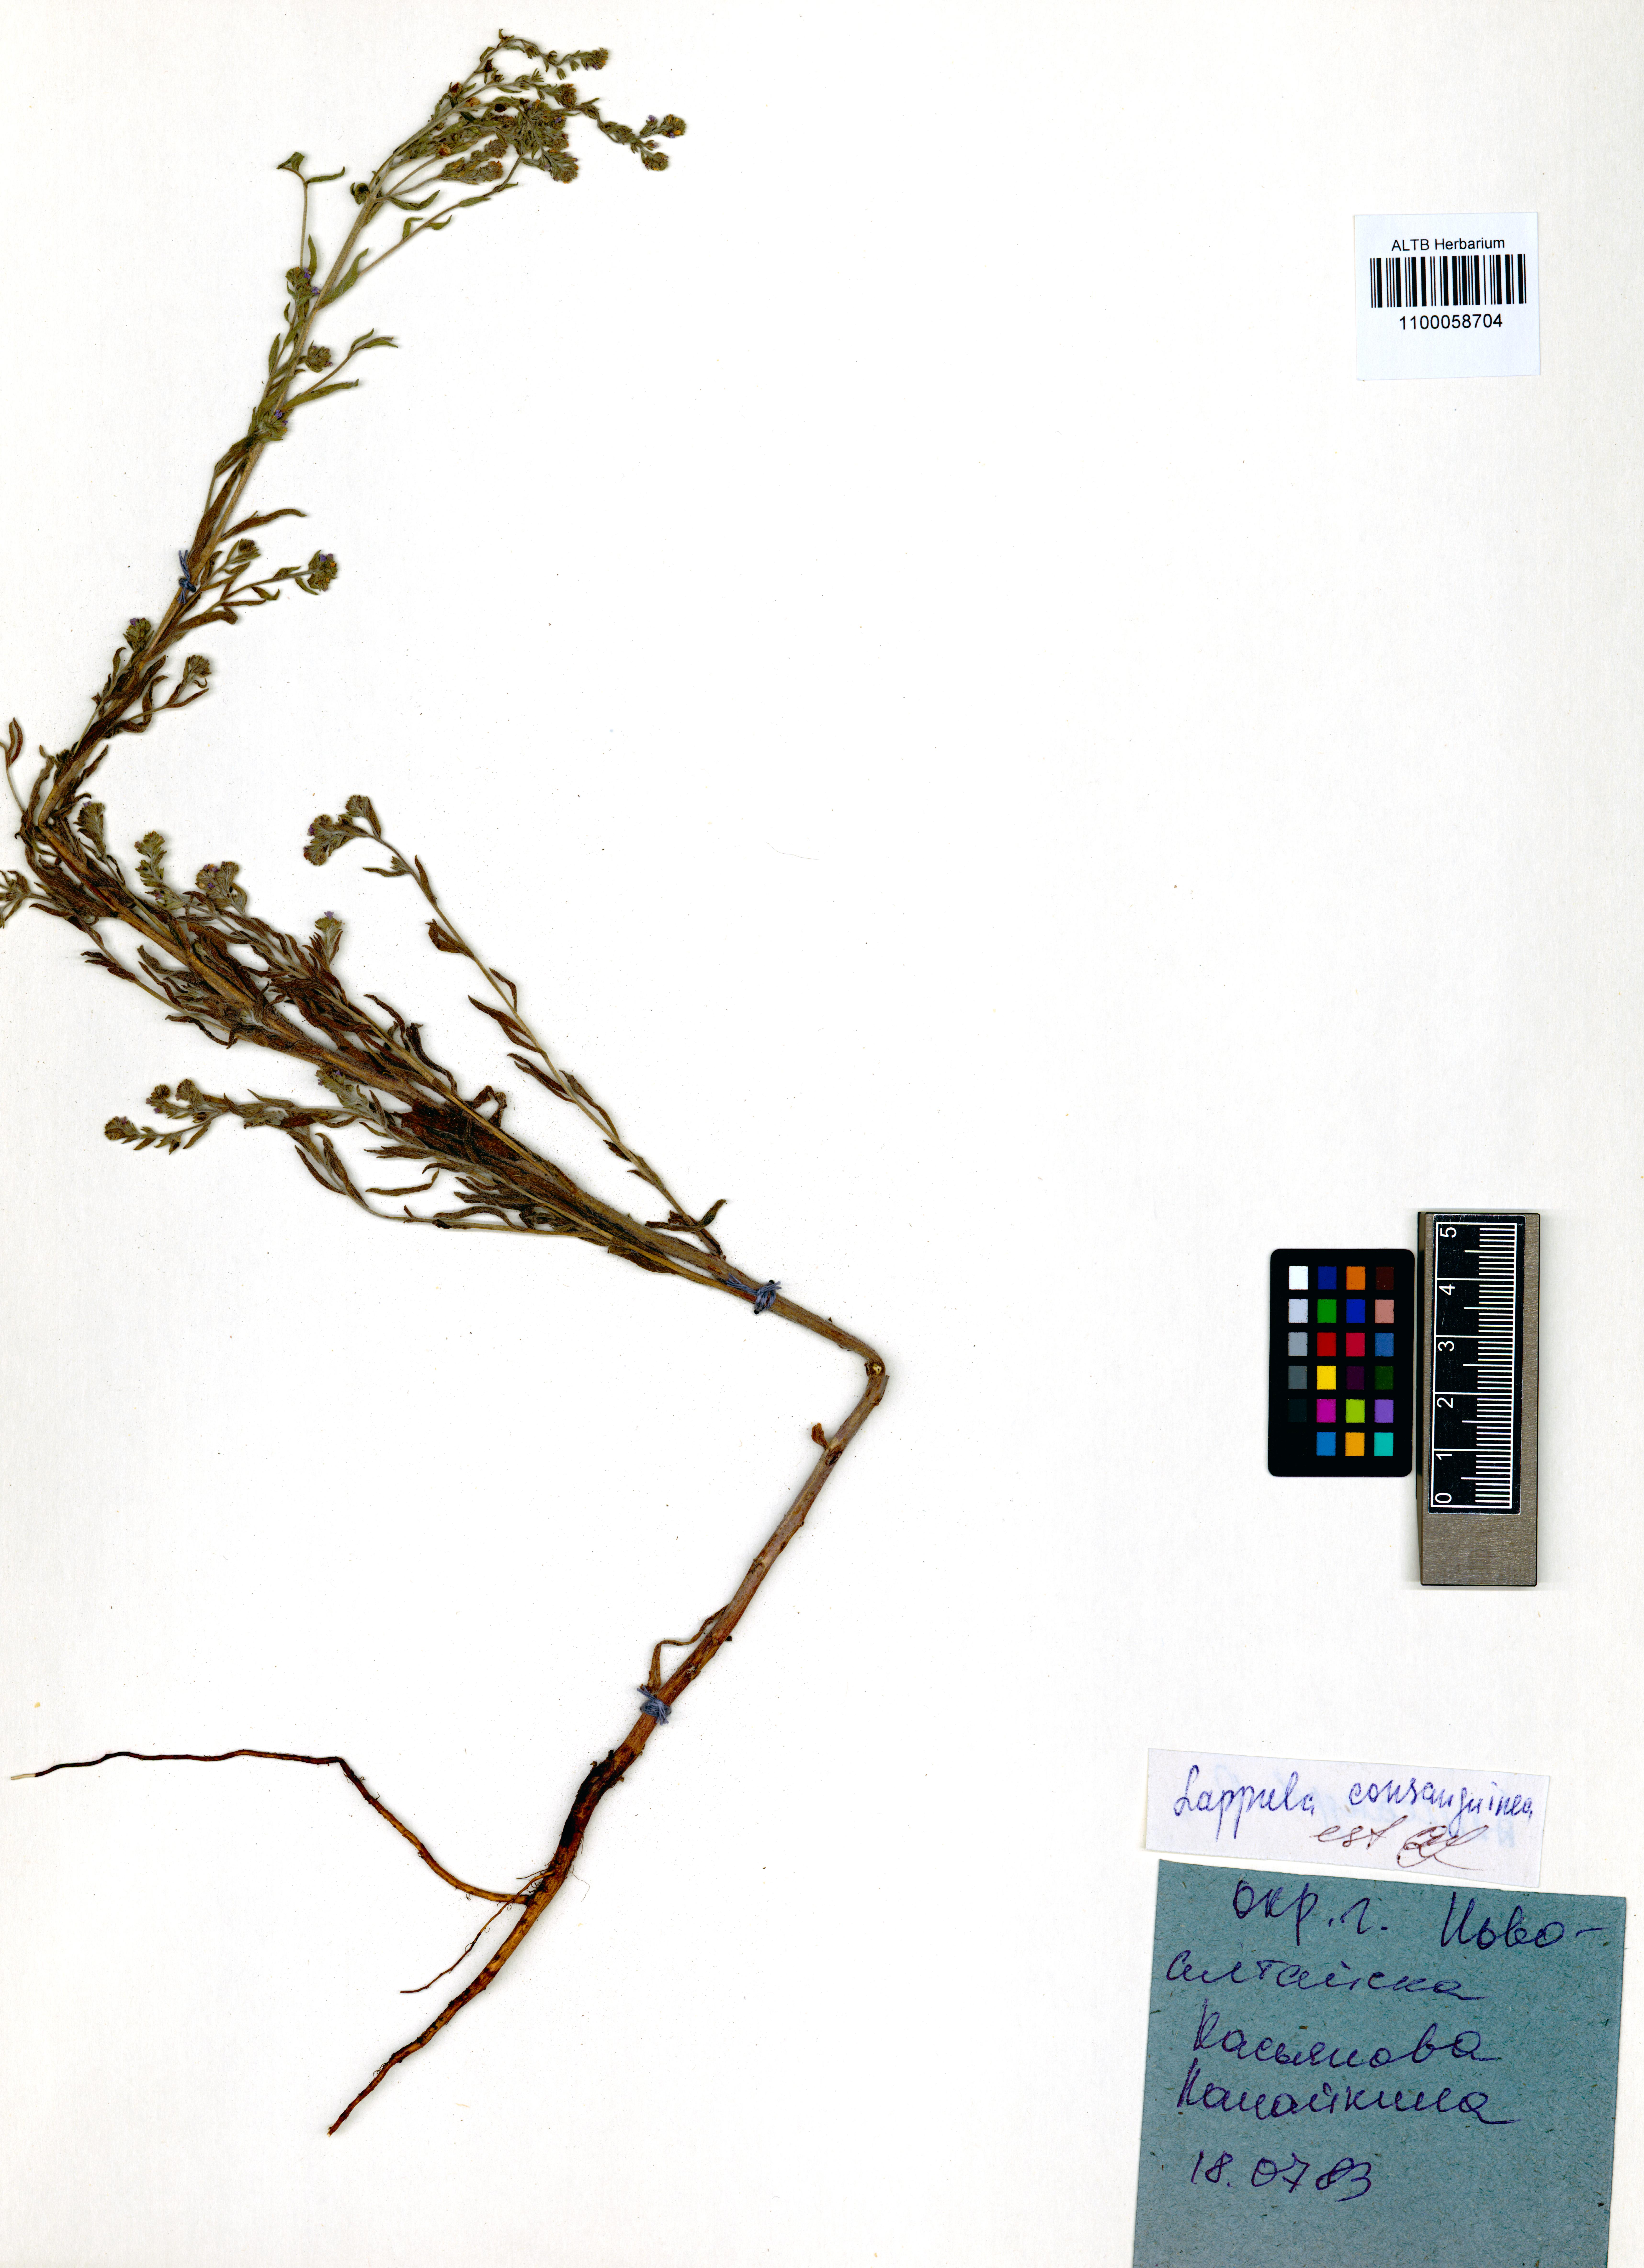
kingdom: Plantae
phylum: Tracheophyta
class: Magnoliopsida
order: Boraginales
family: Boraginaceae
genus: Lappula
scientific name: Lappula squarrosa
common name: European stickseed
